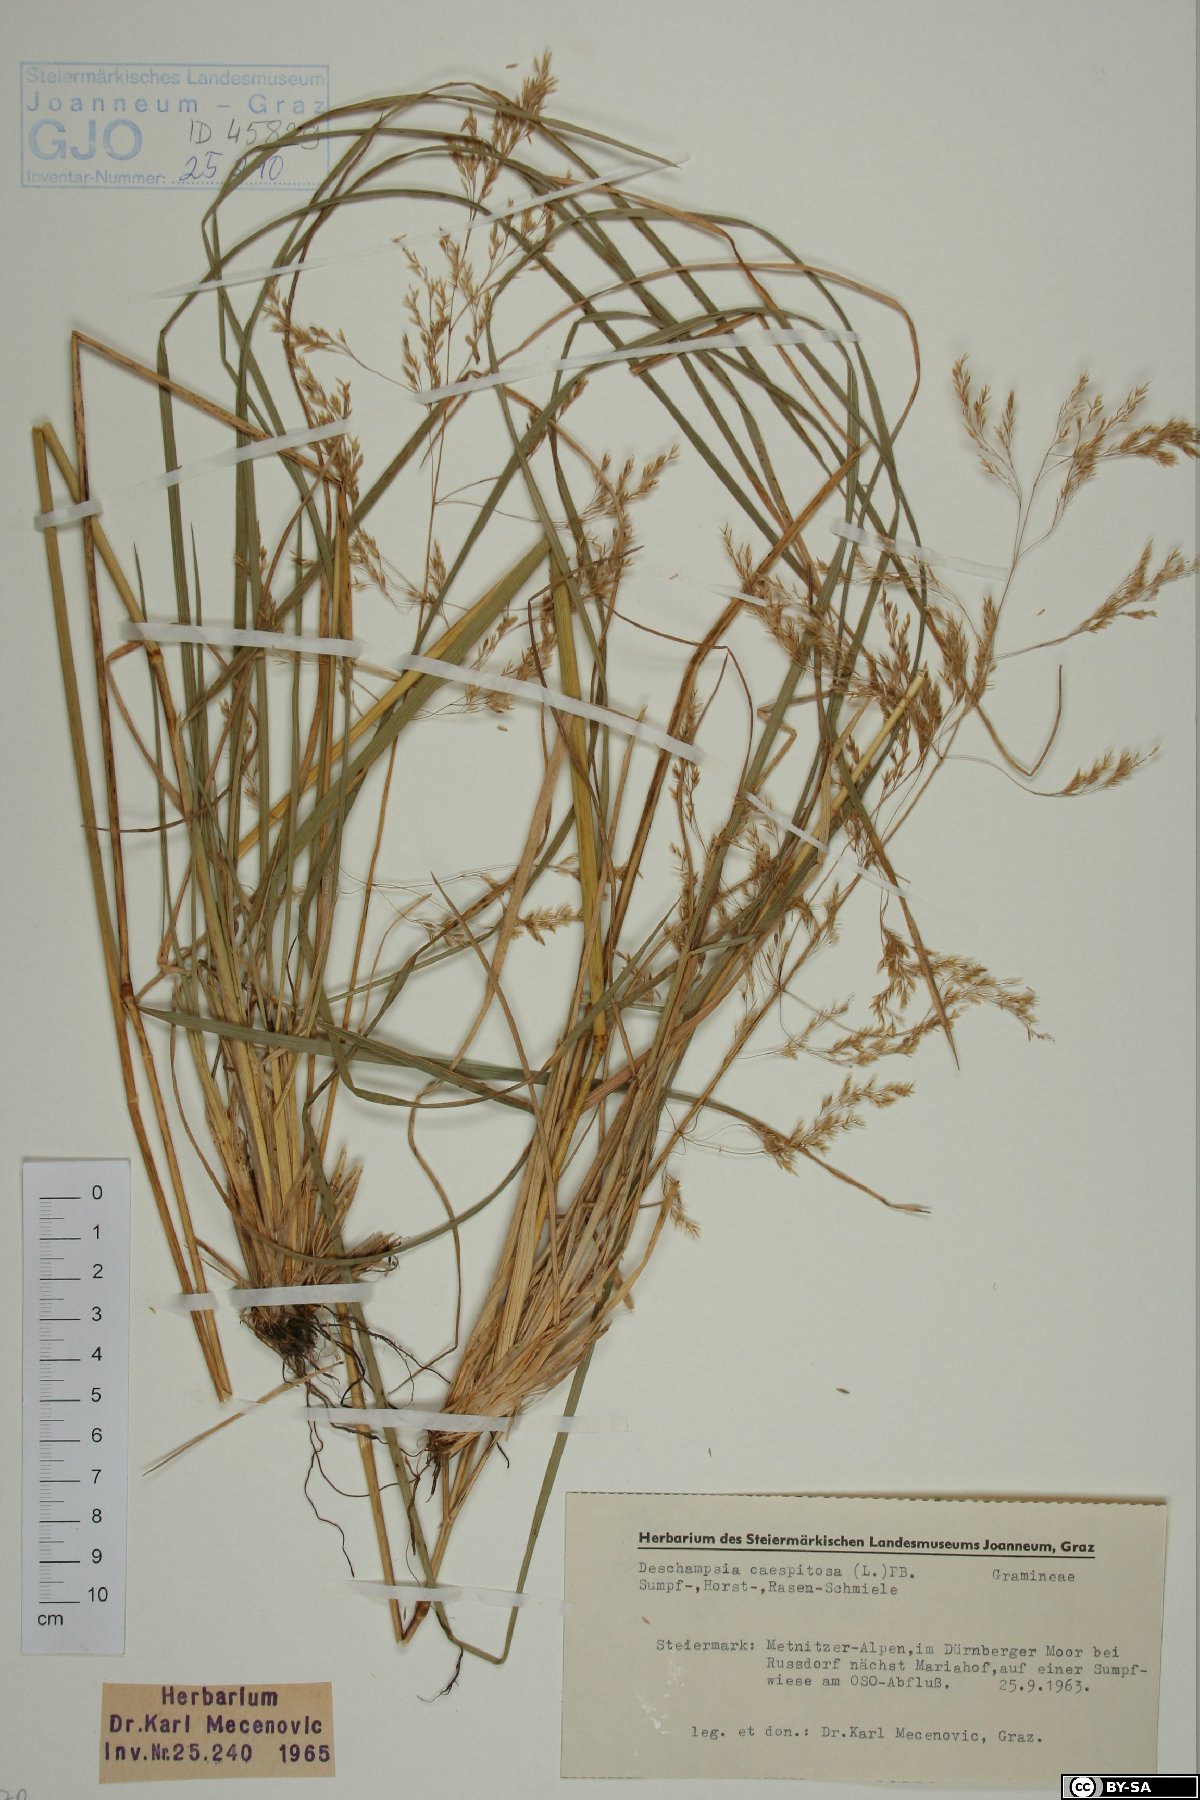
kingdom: Plantae
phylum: Tracheophyta
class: Liliopsida
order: Poales
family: Poaceae
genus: Deschampsia
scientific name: Deschampsia cespitosa
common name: Tufted hair-grass
